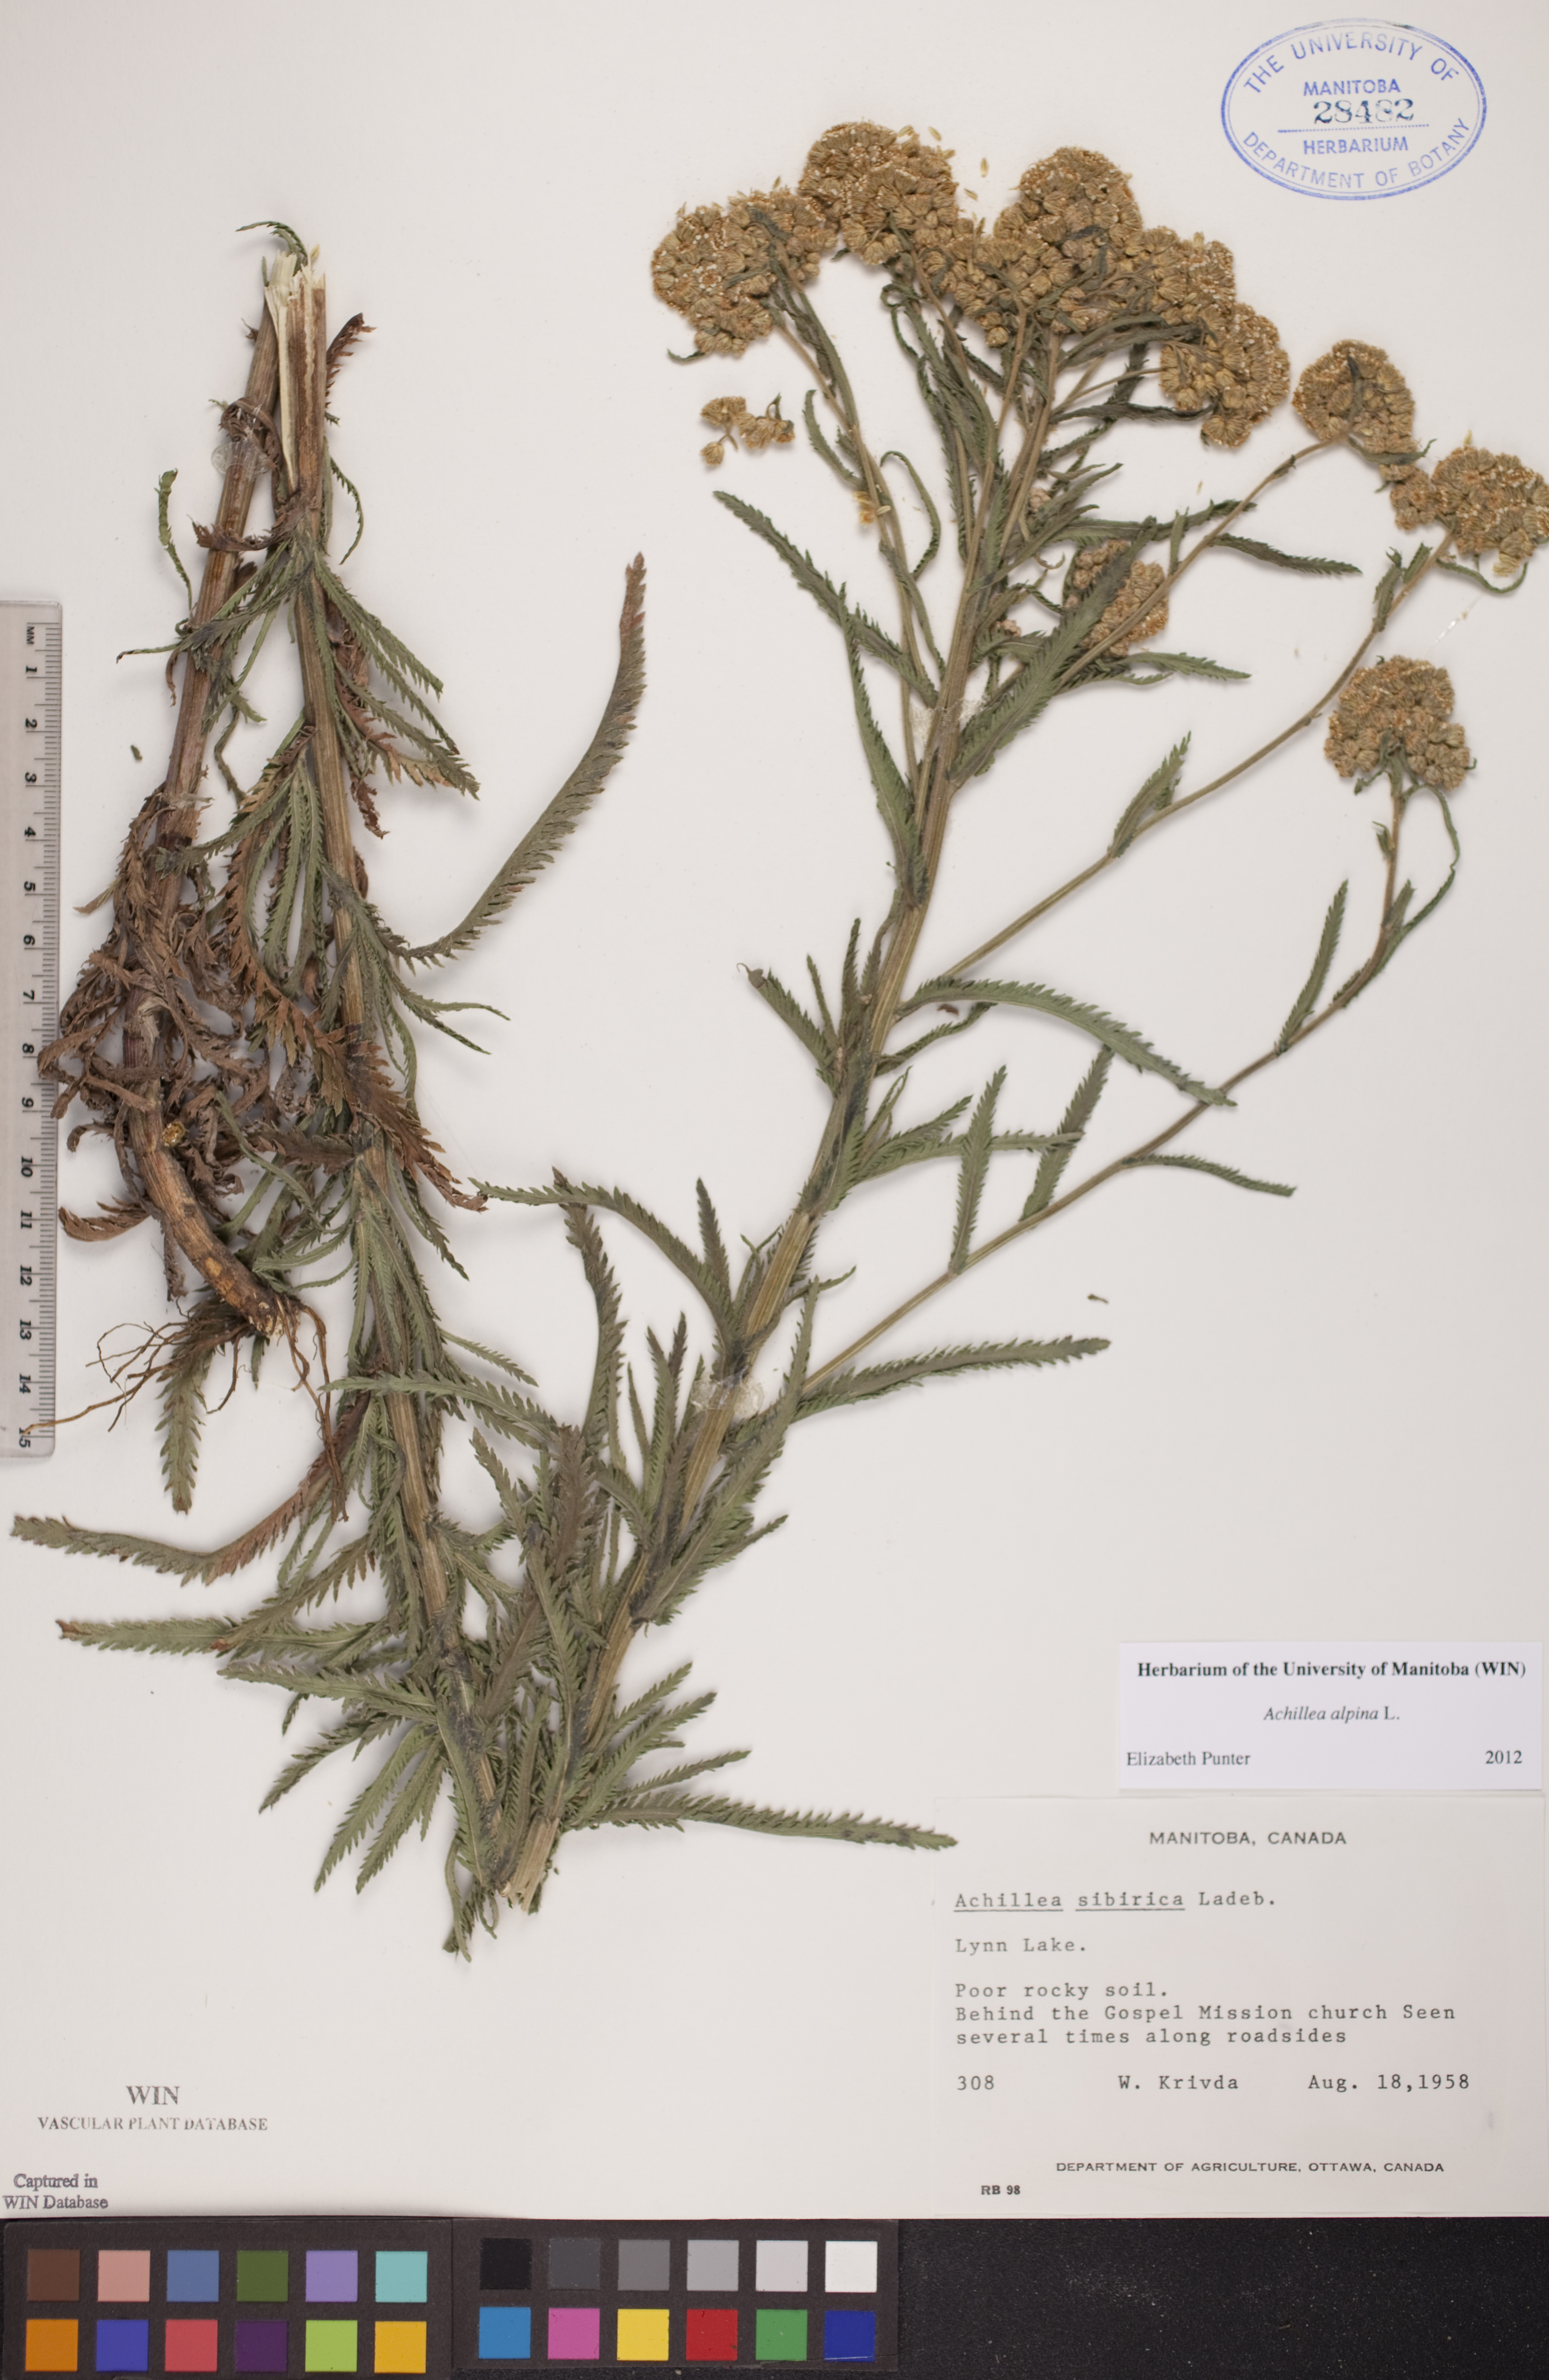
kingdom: Plantae
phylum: Tracheophyta
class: Magnoliopsida
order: Asterales
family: Asteraceae
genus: Achillea
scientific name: Achillea alpina
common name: Siberian yarrow
